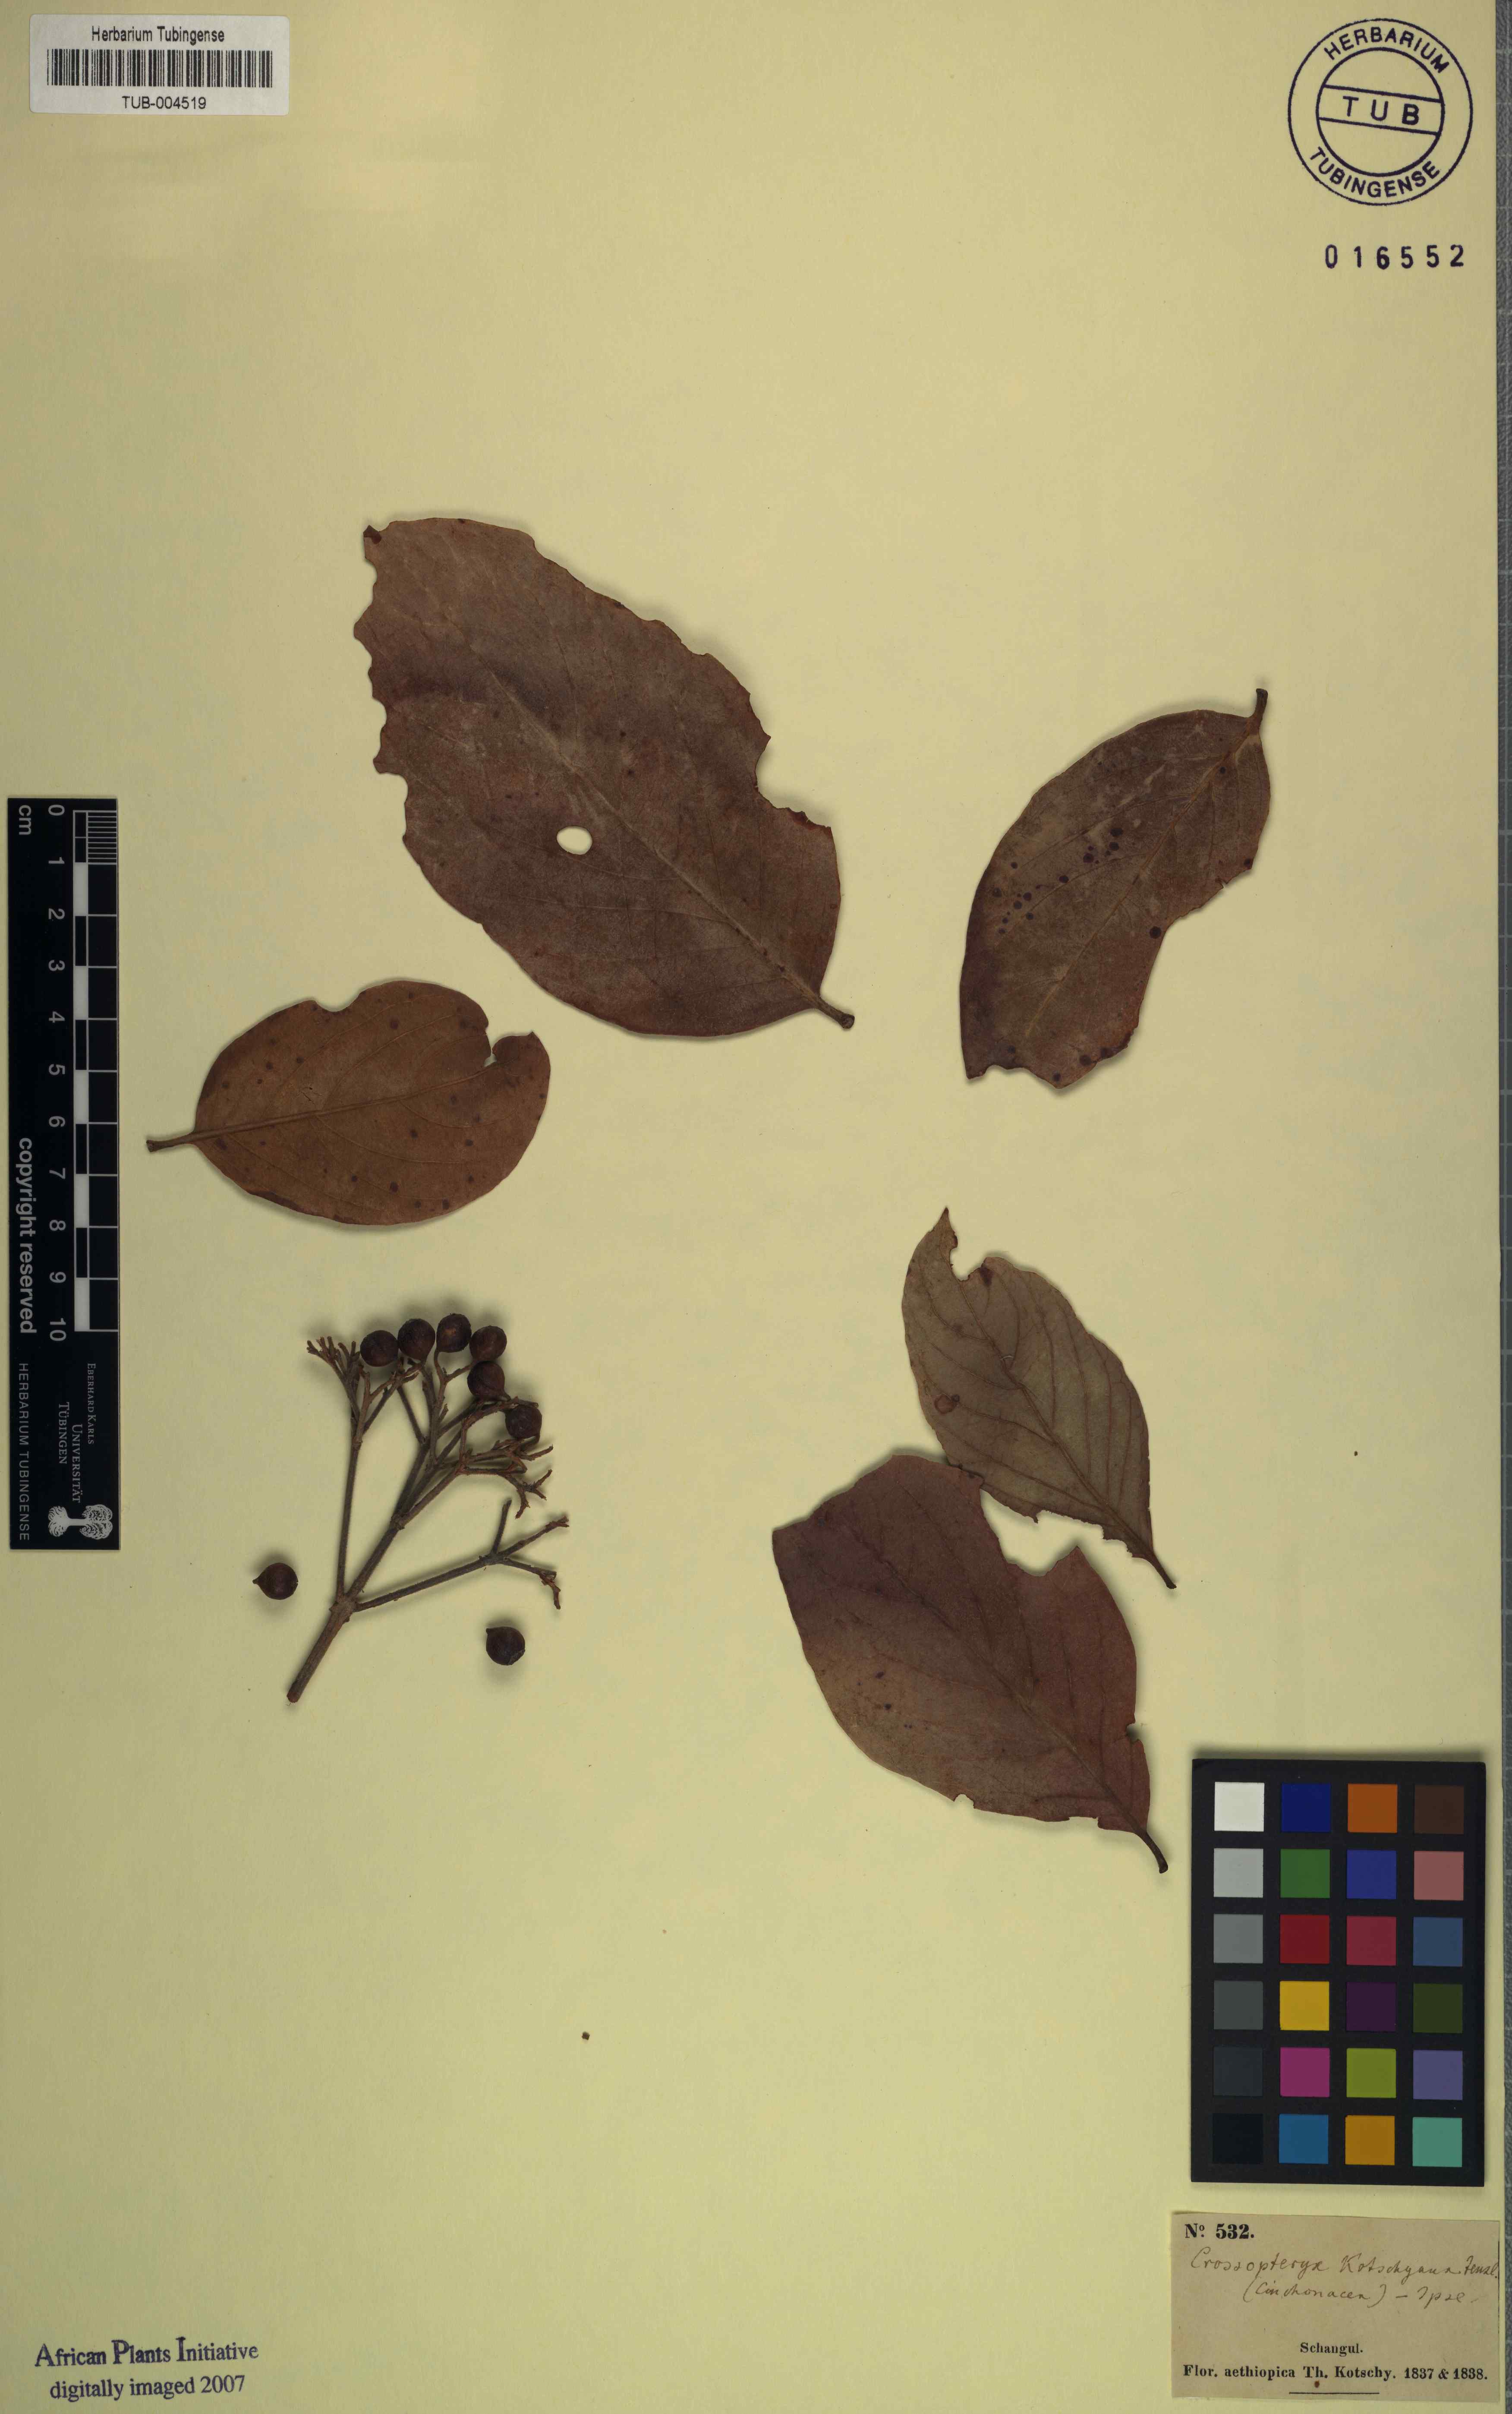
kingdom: Plantae
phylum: Tracheophyta
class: Magnoliopsida
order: Gentianales
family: Rubiaceae
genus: Crossopteryx
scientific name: Crossopteryx febrifuga
